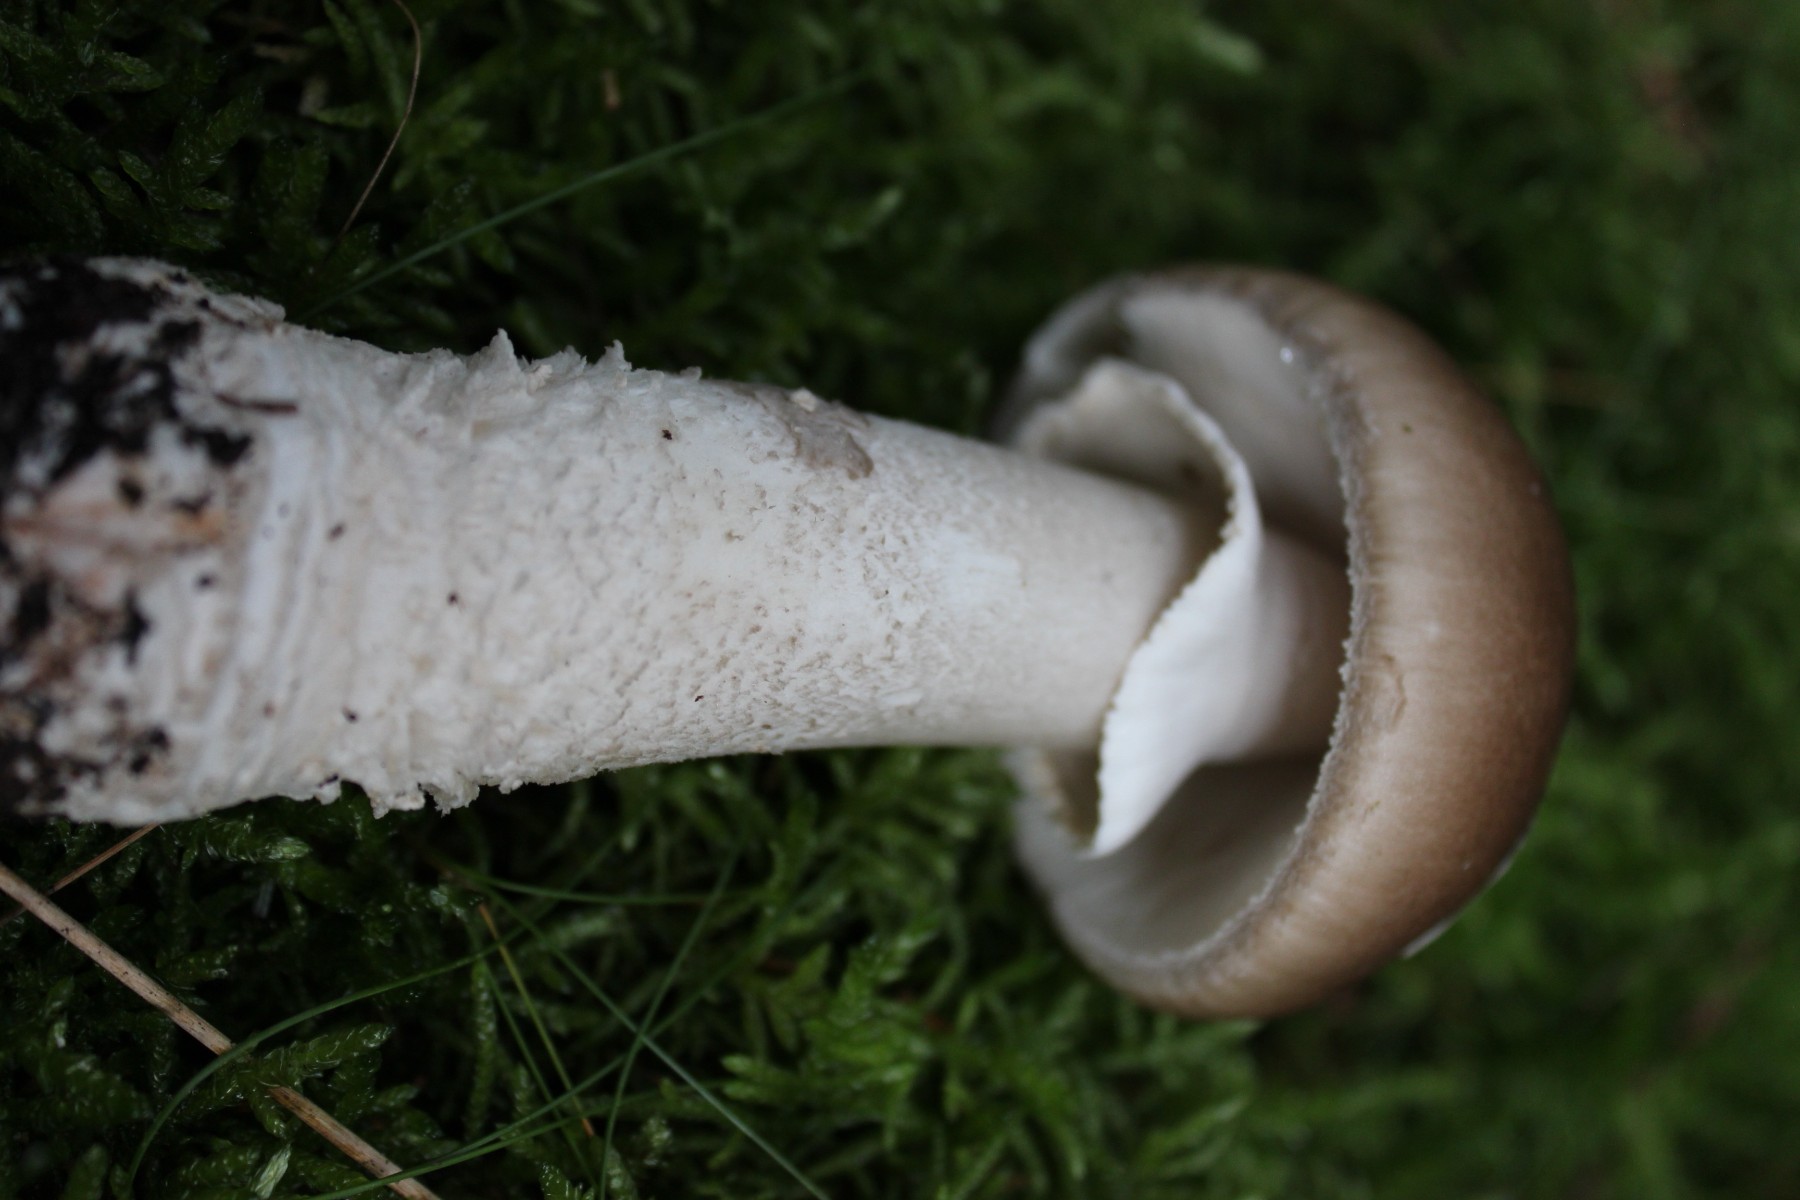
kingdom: Fungi
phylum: Basidiomycota
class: Agaricomycetes
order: Agaricales
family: Amanitaceae
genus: Amanita
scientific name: Amanita
